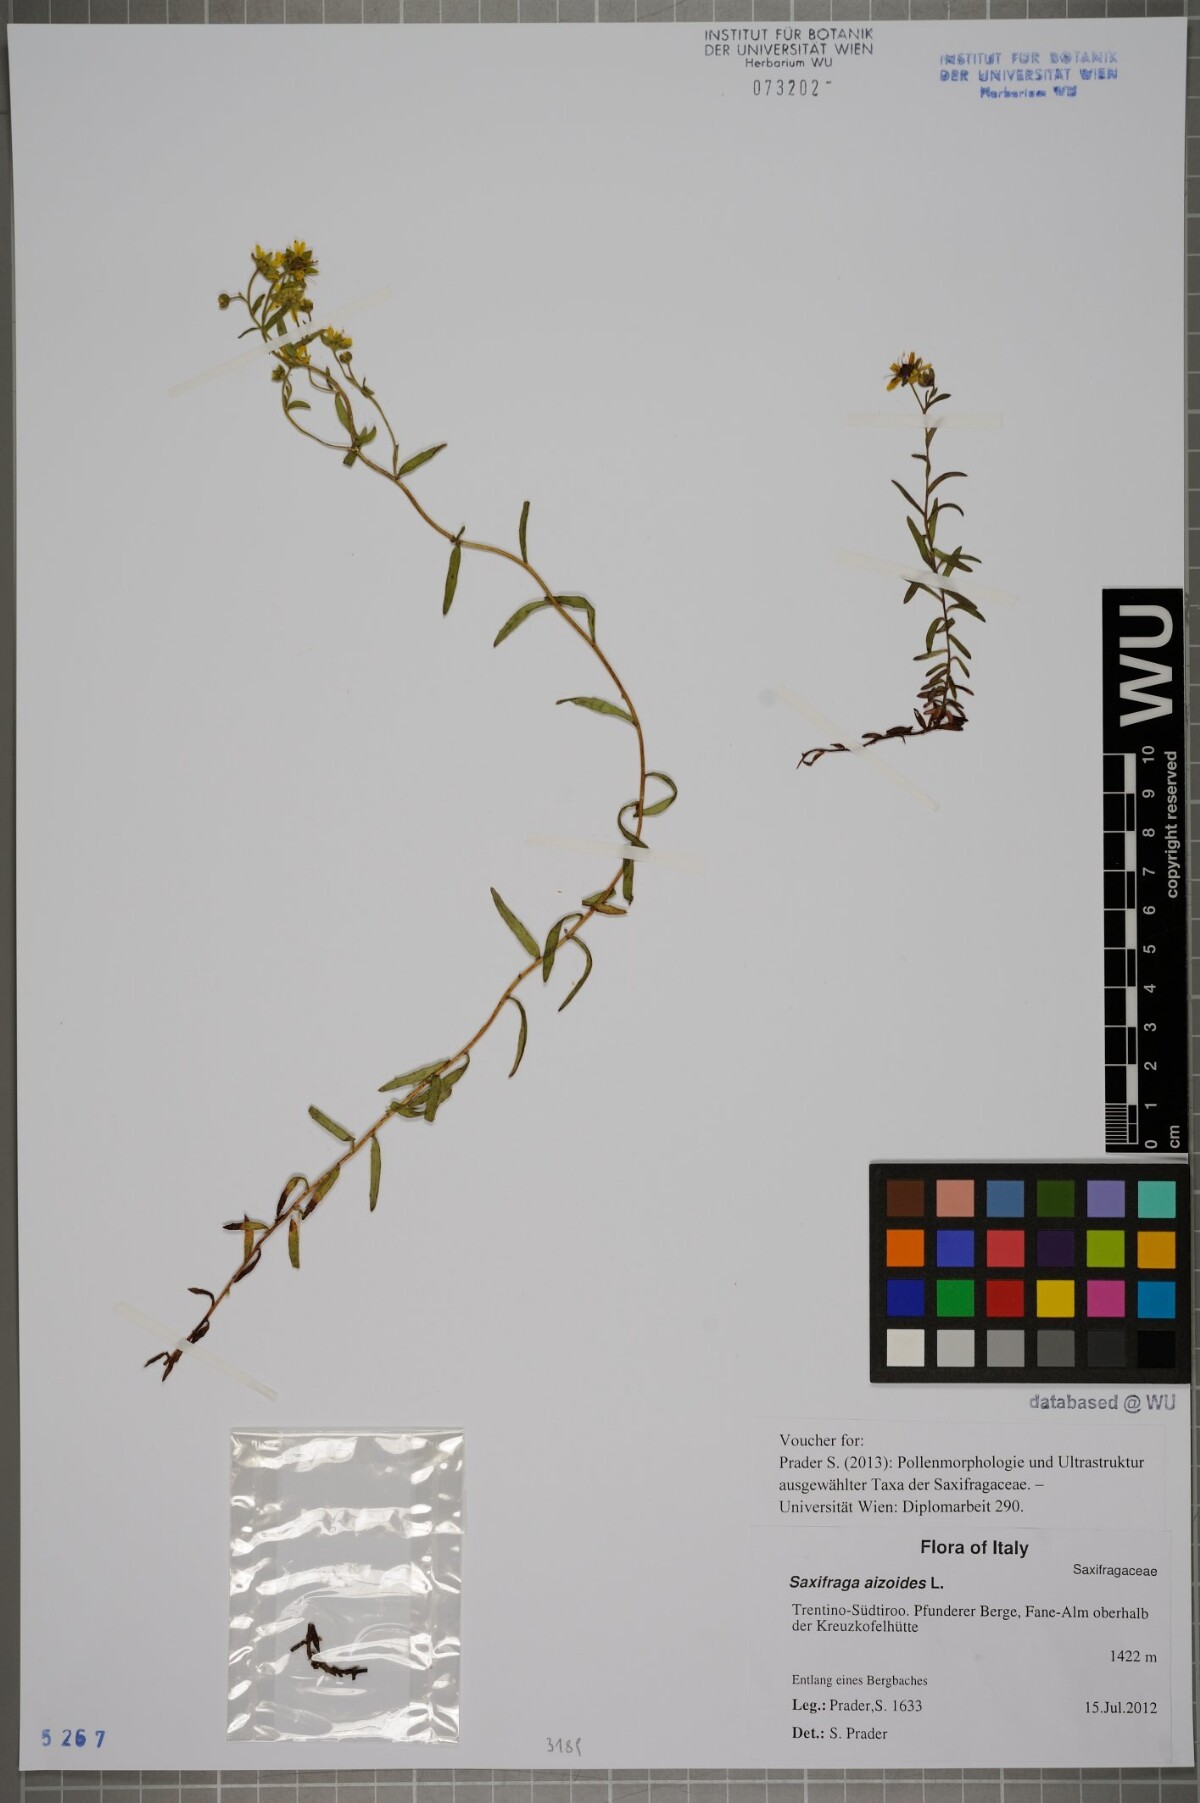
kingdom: Plantae
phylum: Tracheophyta
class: Magnoliopsida
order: Saxifragales
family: Saxifragaceae
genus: Saxifraga
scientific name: Saxifraga aizoides
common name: Yellow mountain saxifrage
